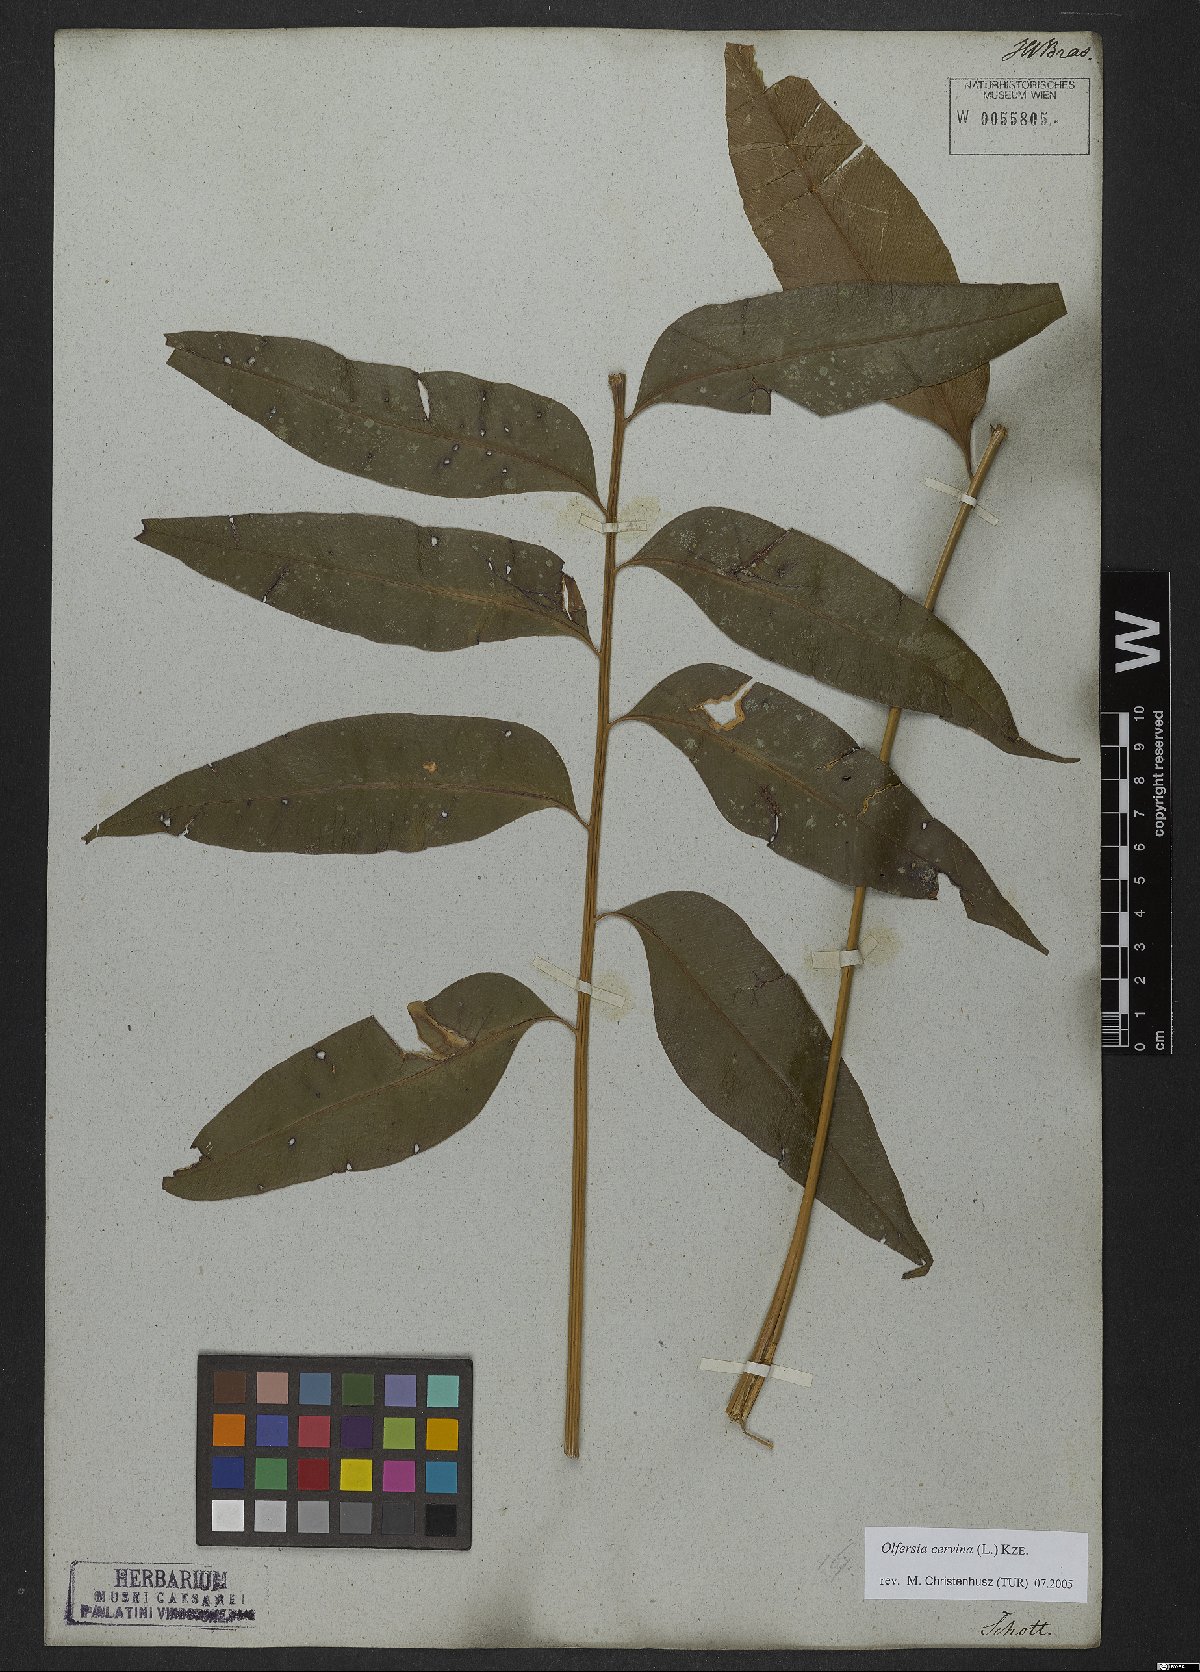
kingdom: Plantae
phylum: Tracheophyta
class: Polypodiopsida
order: Polypodiales
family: Dryopteridaceae
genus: Olfersia
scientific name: Olfersia cervina
